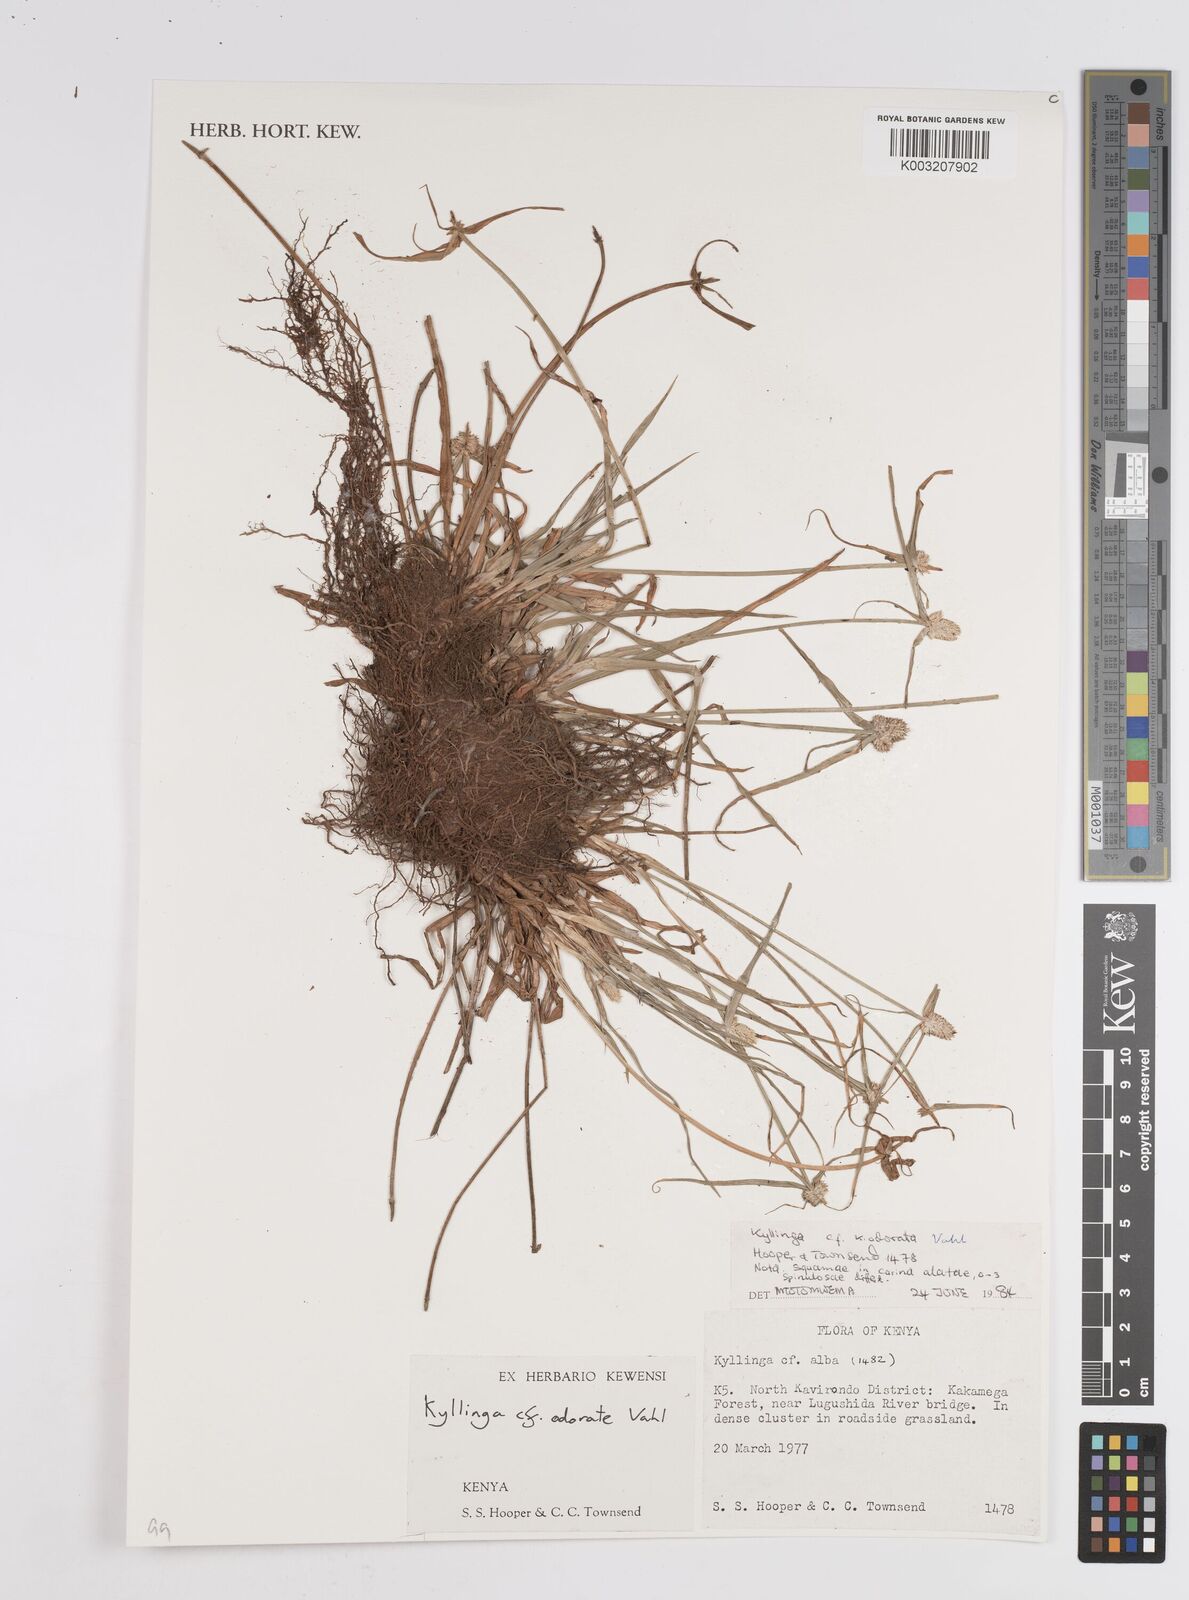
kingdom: Plantae
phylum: Tracheophyta
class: Liliopsida
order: Poales
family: Cyperaceae
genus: Cyperus
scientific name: Cyperus
